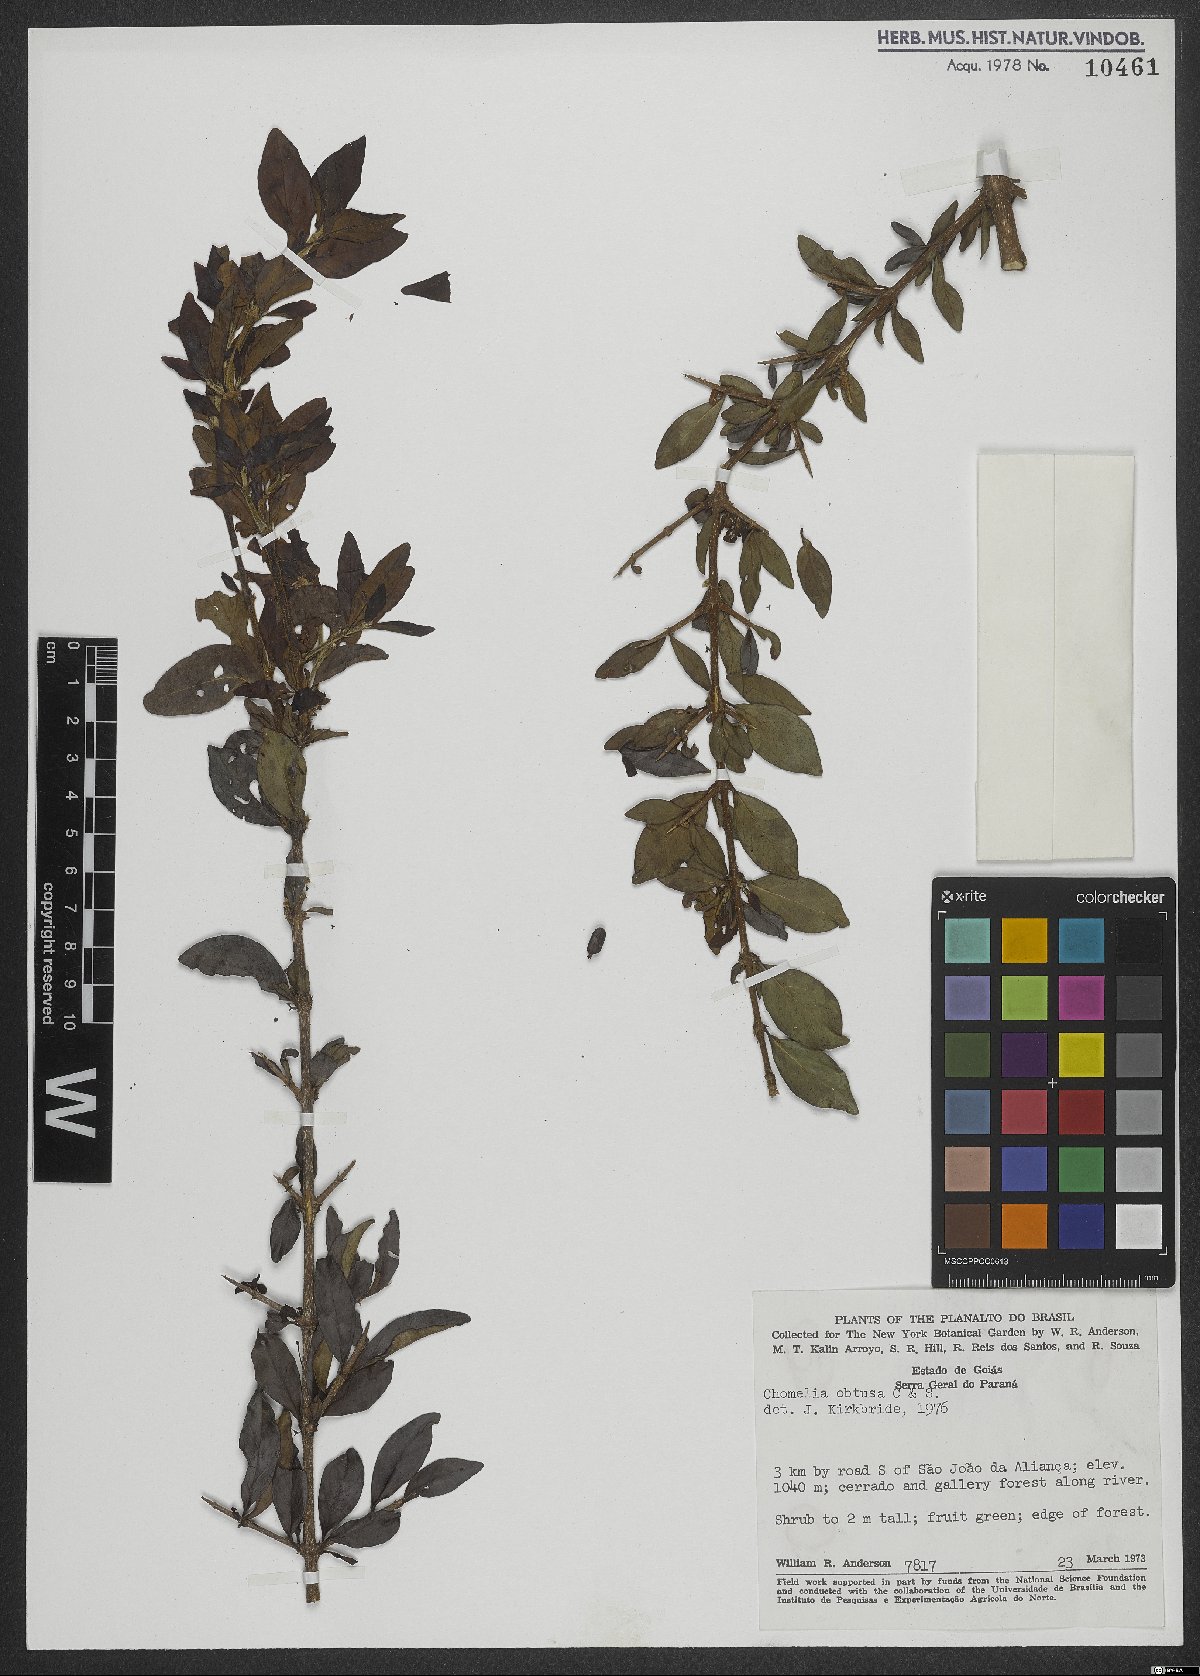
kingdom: Plantae
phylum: Tracheophyta
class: Magnoliopsida
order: Gentianales
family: Rubiaceae
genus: Chomelia
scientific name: Chomelia obtusa
